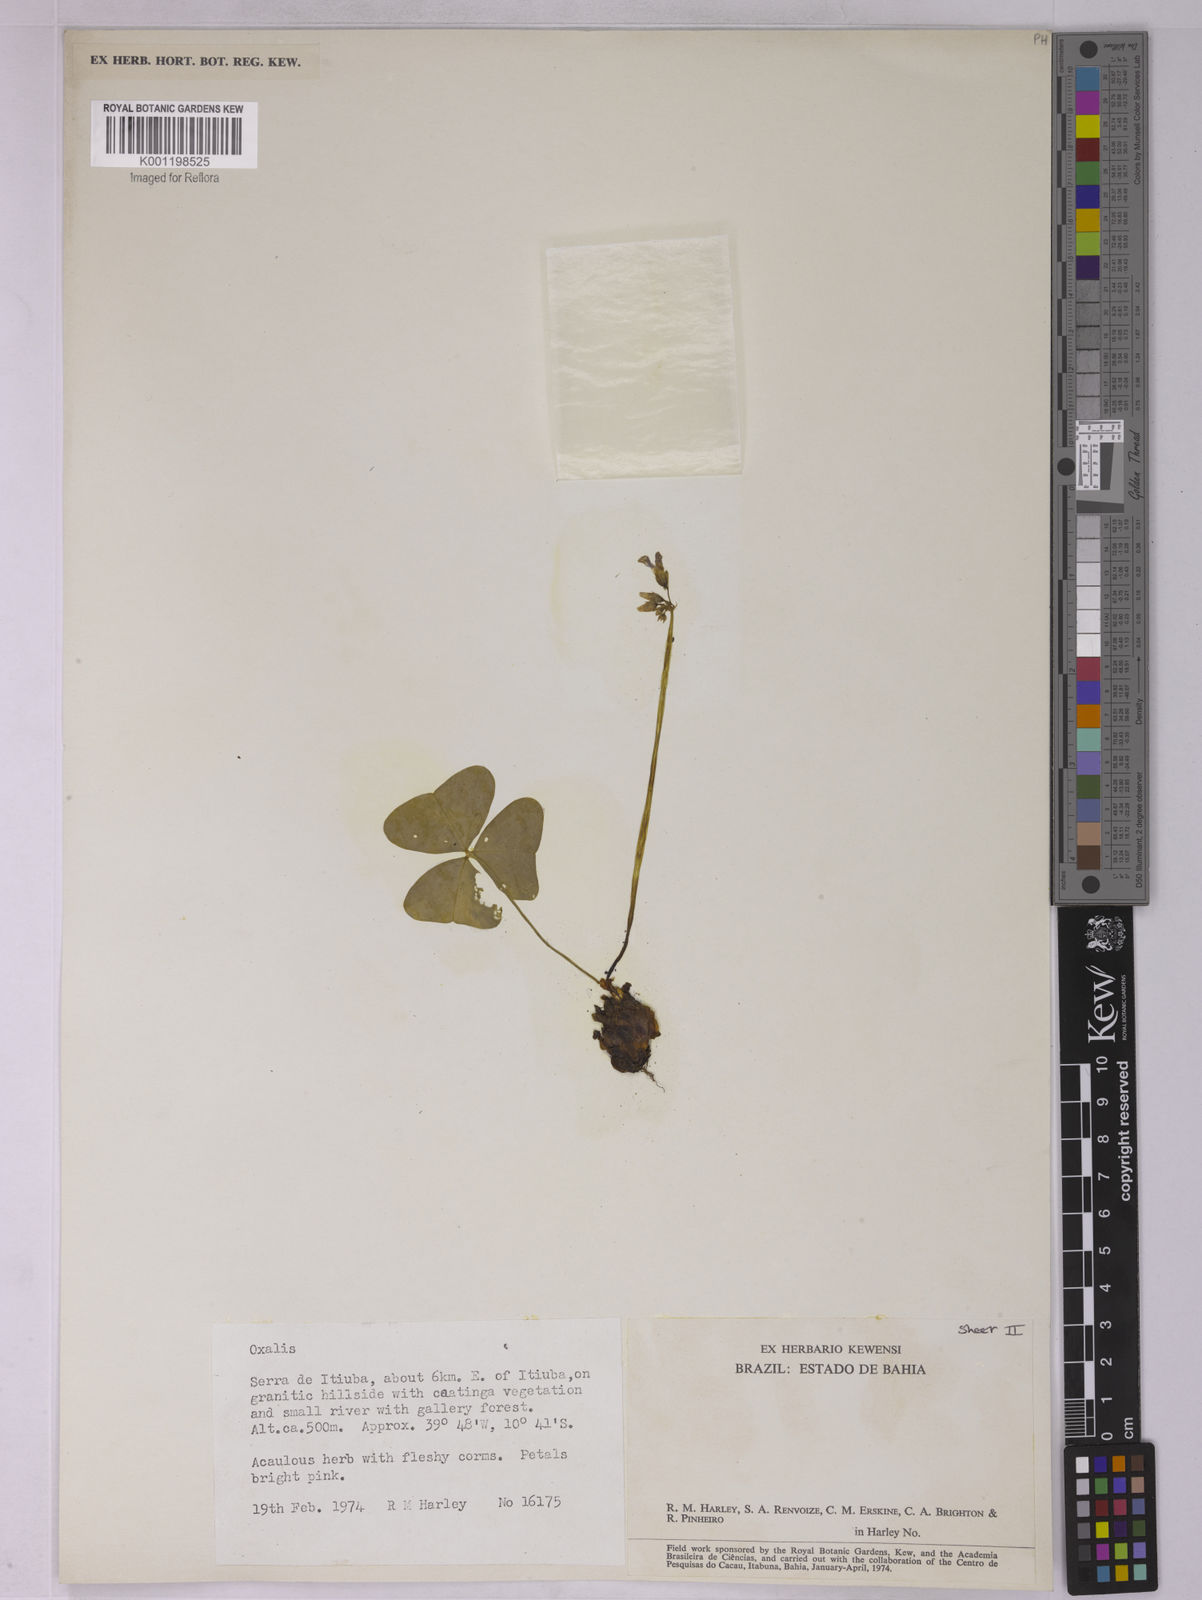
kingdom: Plantae
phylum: Tracheophyta
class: Magnoliopsida
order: Oxalidales
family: Oxalidaceae
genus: Oxalis
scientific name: Oxalis
